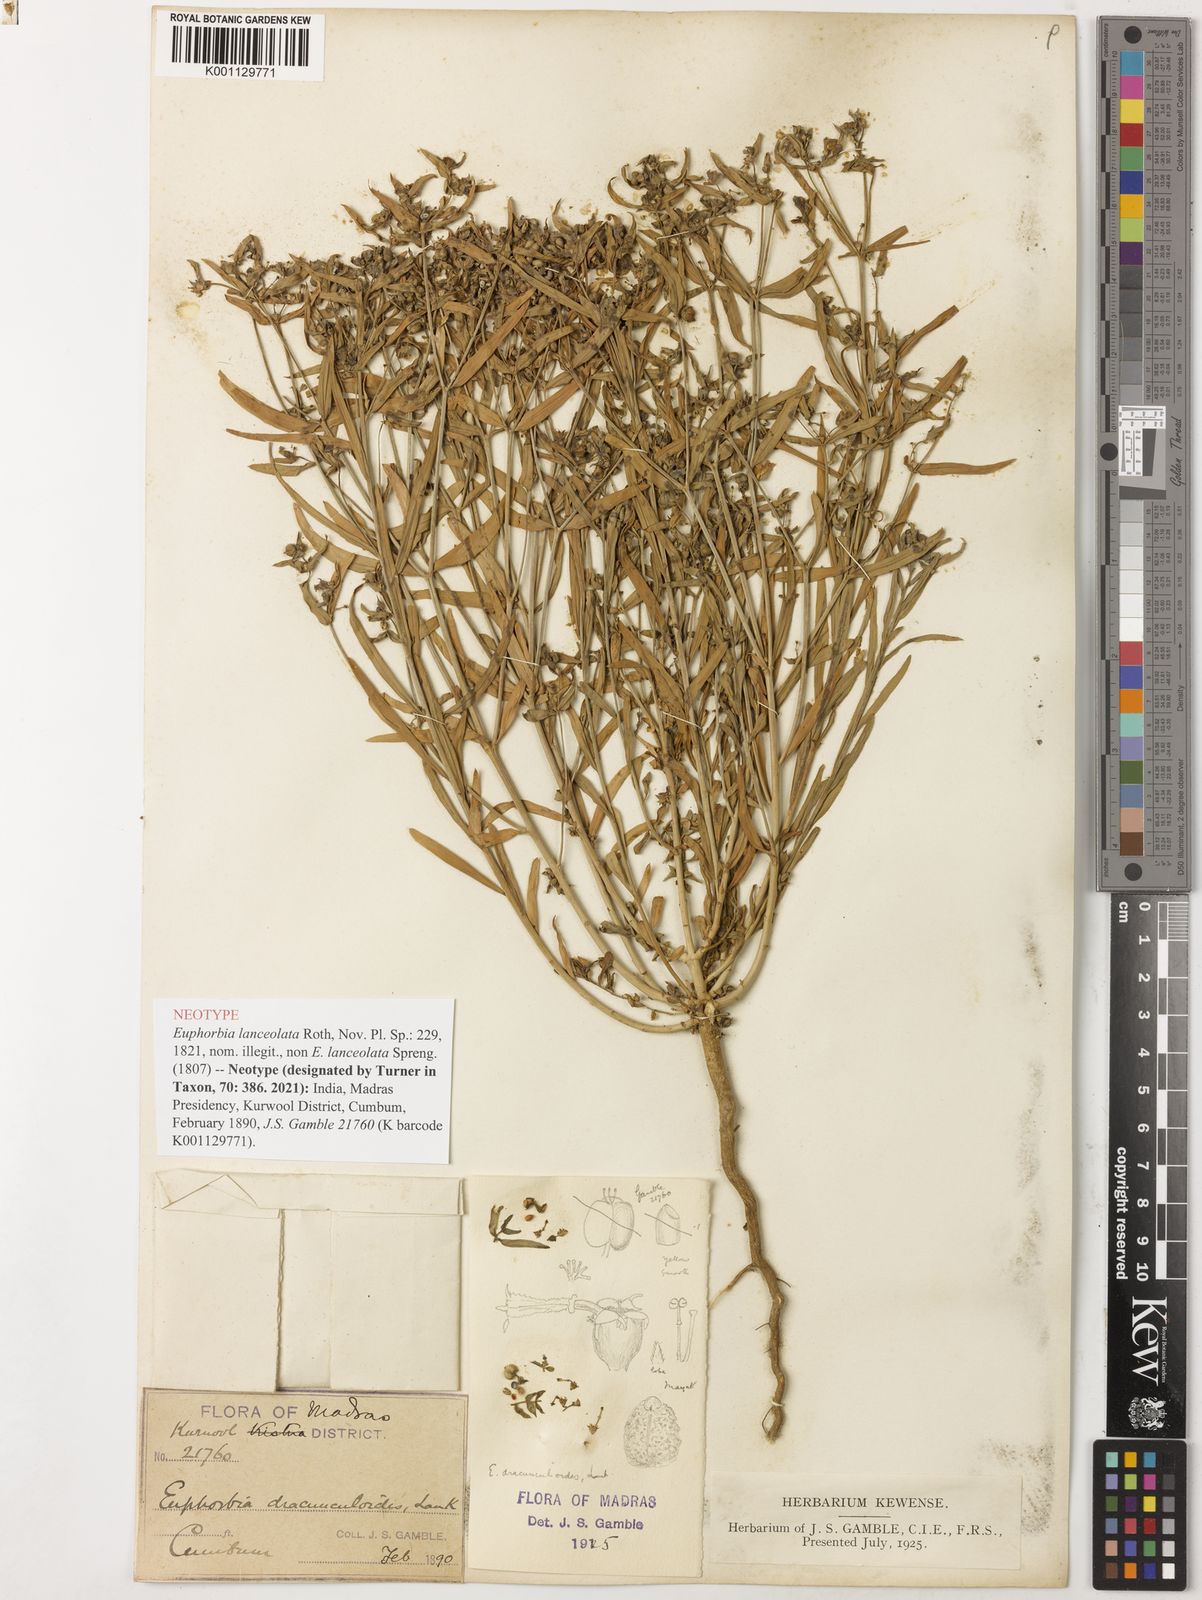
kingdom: Plantae
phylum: Tracheophyta
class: Magnoliopsida
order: Malpighiales
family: Euphorbiaceae
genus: Euphorbia
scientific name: Euphorbia dracunculoides
